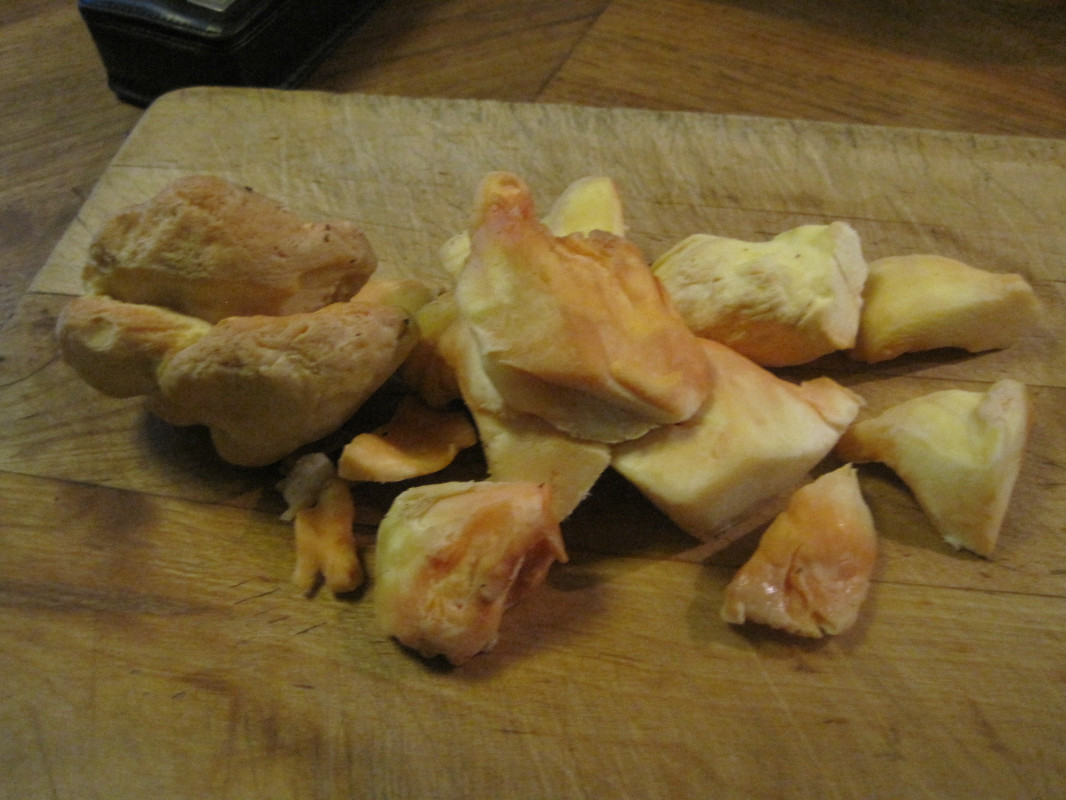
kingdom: Fungi
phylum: Basidiomycota
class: Agaricomycetes
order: Polyporales
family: Laetiporaceae
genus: Laetiporus
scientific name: Laetiporus sulphureus
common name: svovlporesvamp
